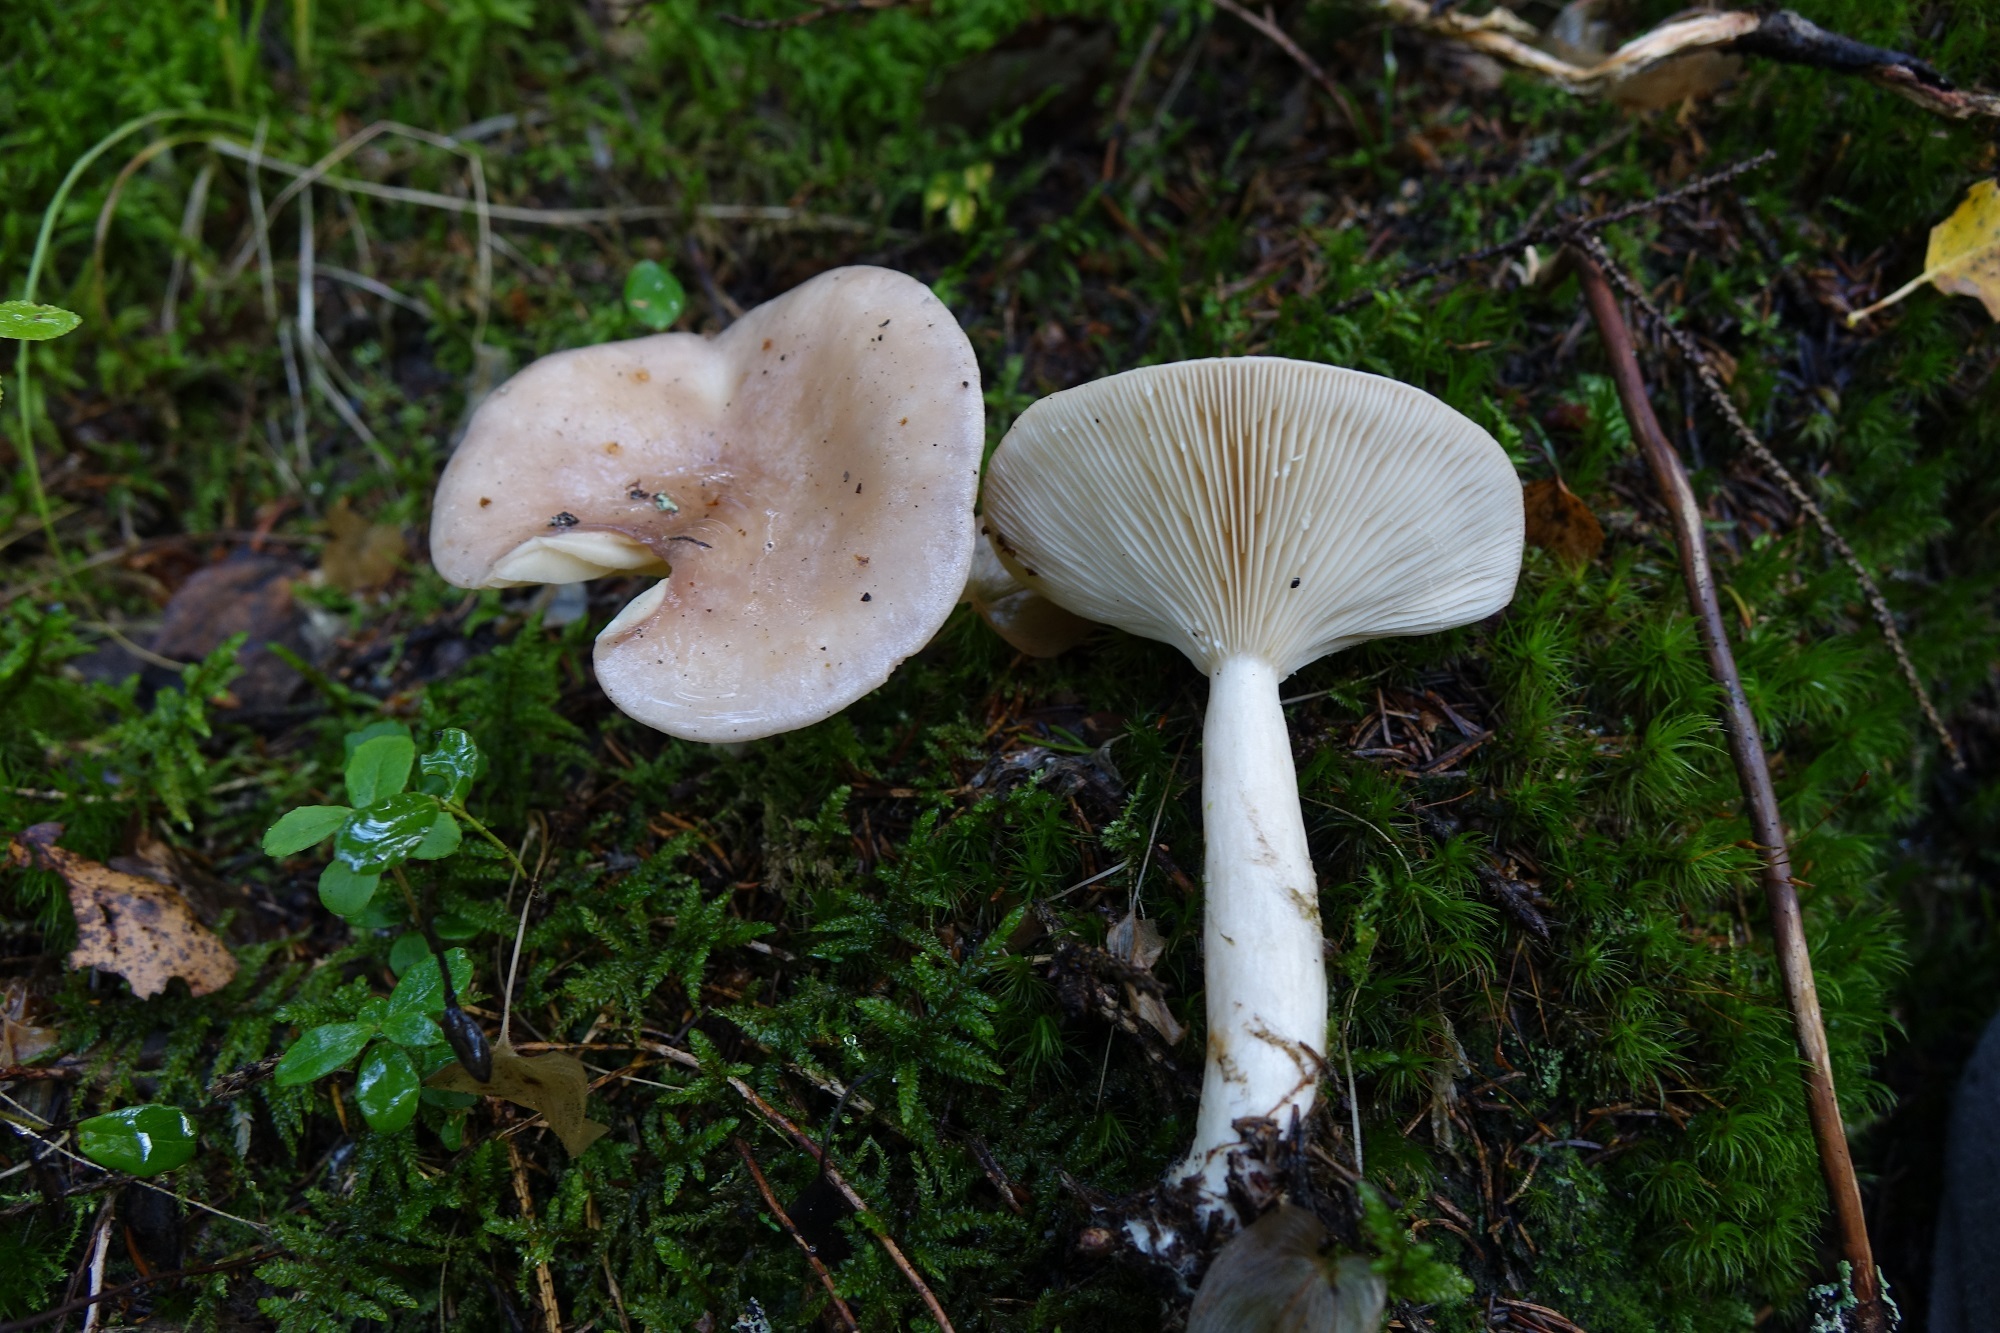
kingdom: Fungi
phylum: Basidiomycota
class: Agaricomycetes
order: Russulales
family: Russulaceae
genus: Lactarius
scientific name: Lactarius utilis
